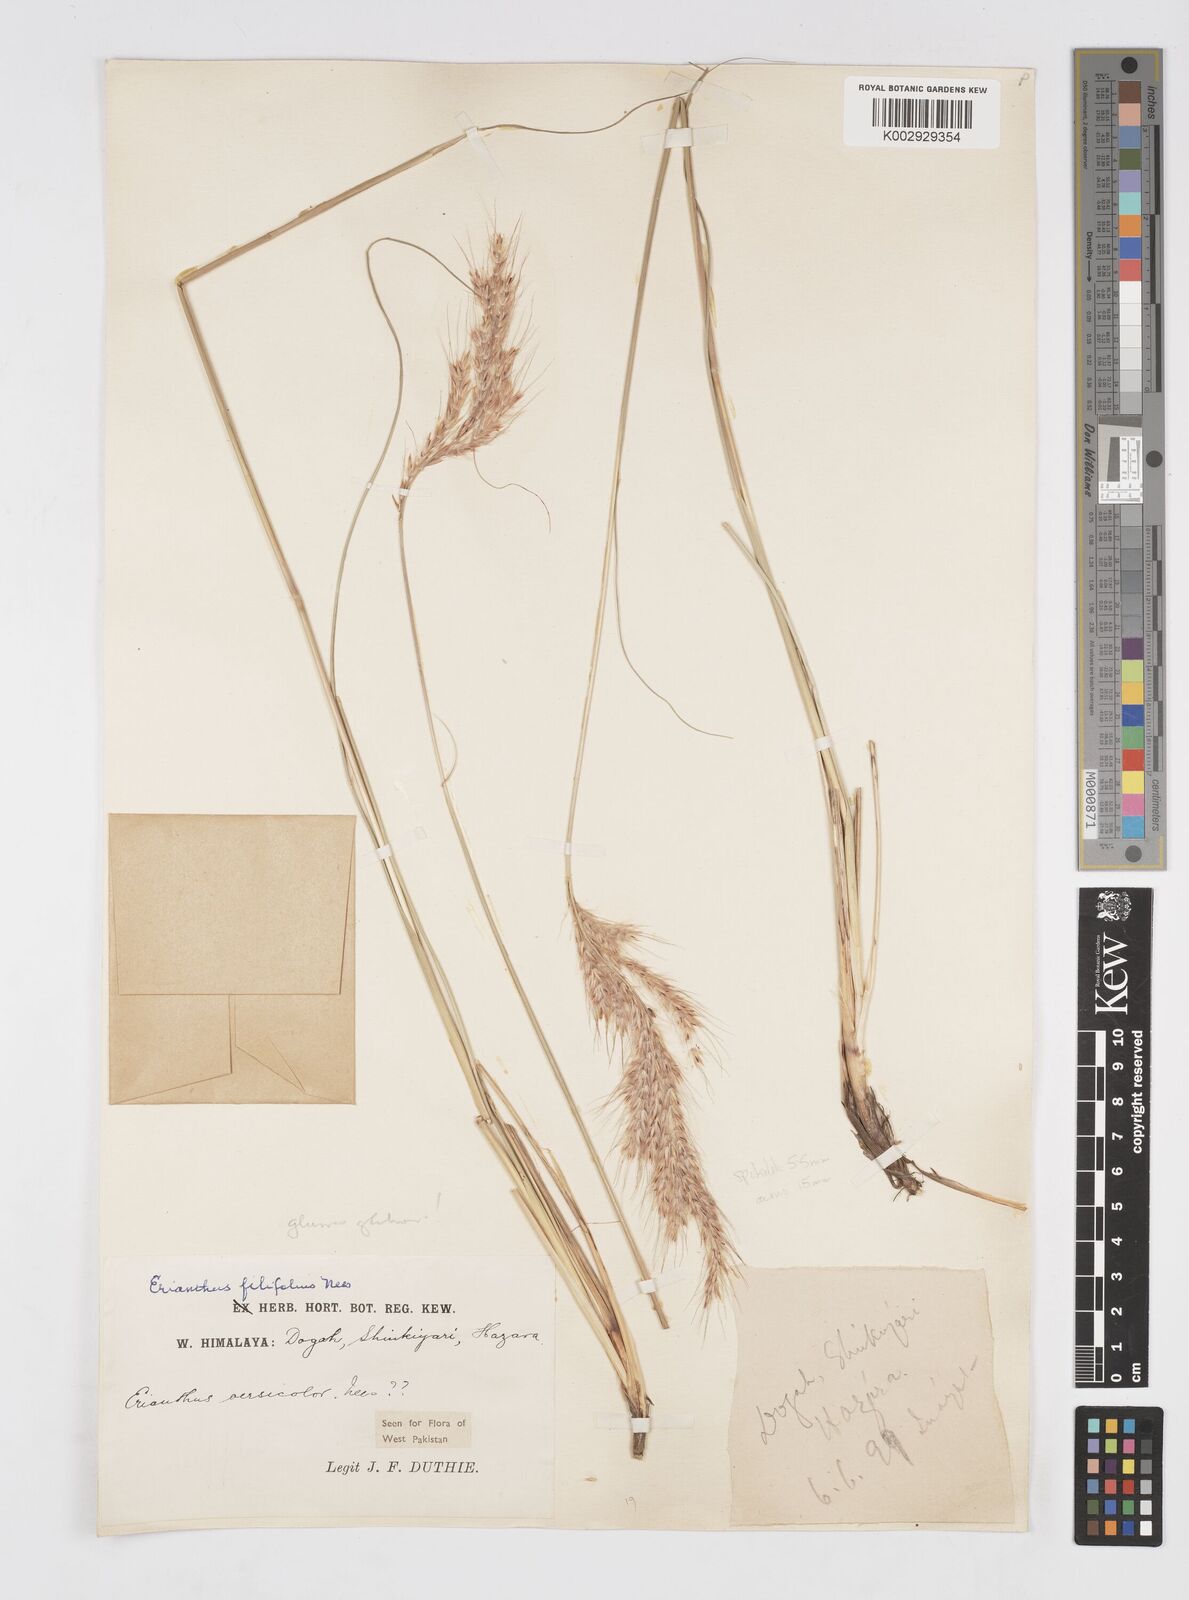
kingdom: Plantae
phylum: Tracheophyta
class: Liliopsida
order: Poales
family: Poaceae
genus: Saccharum
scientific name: Saccharum filifolium
